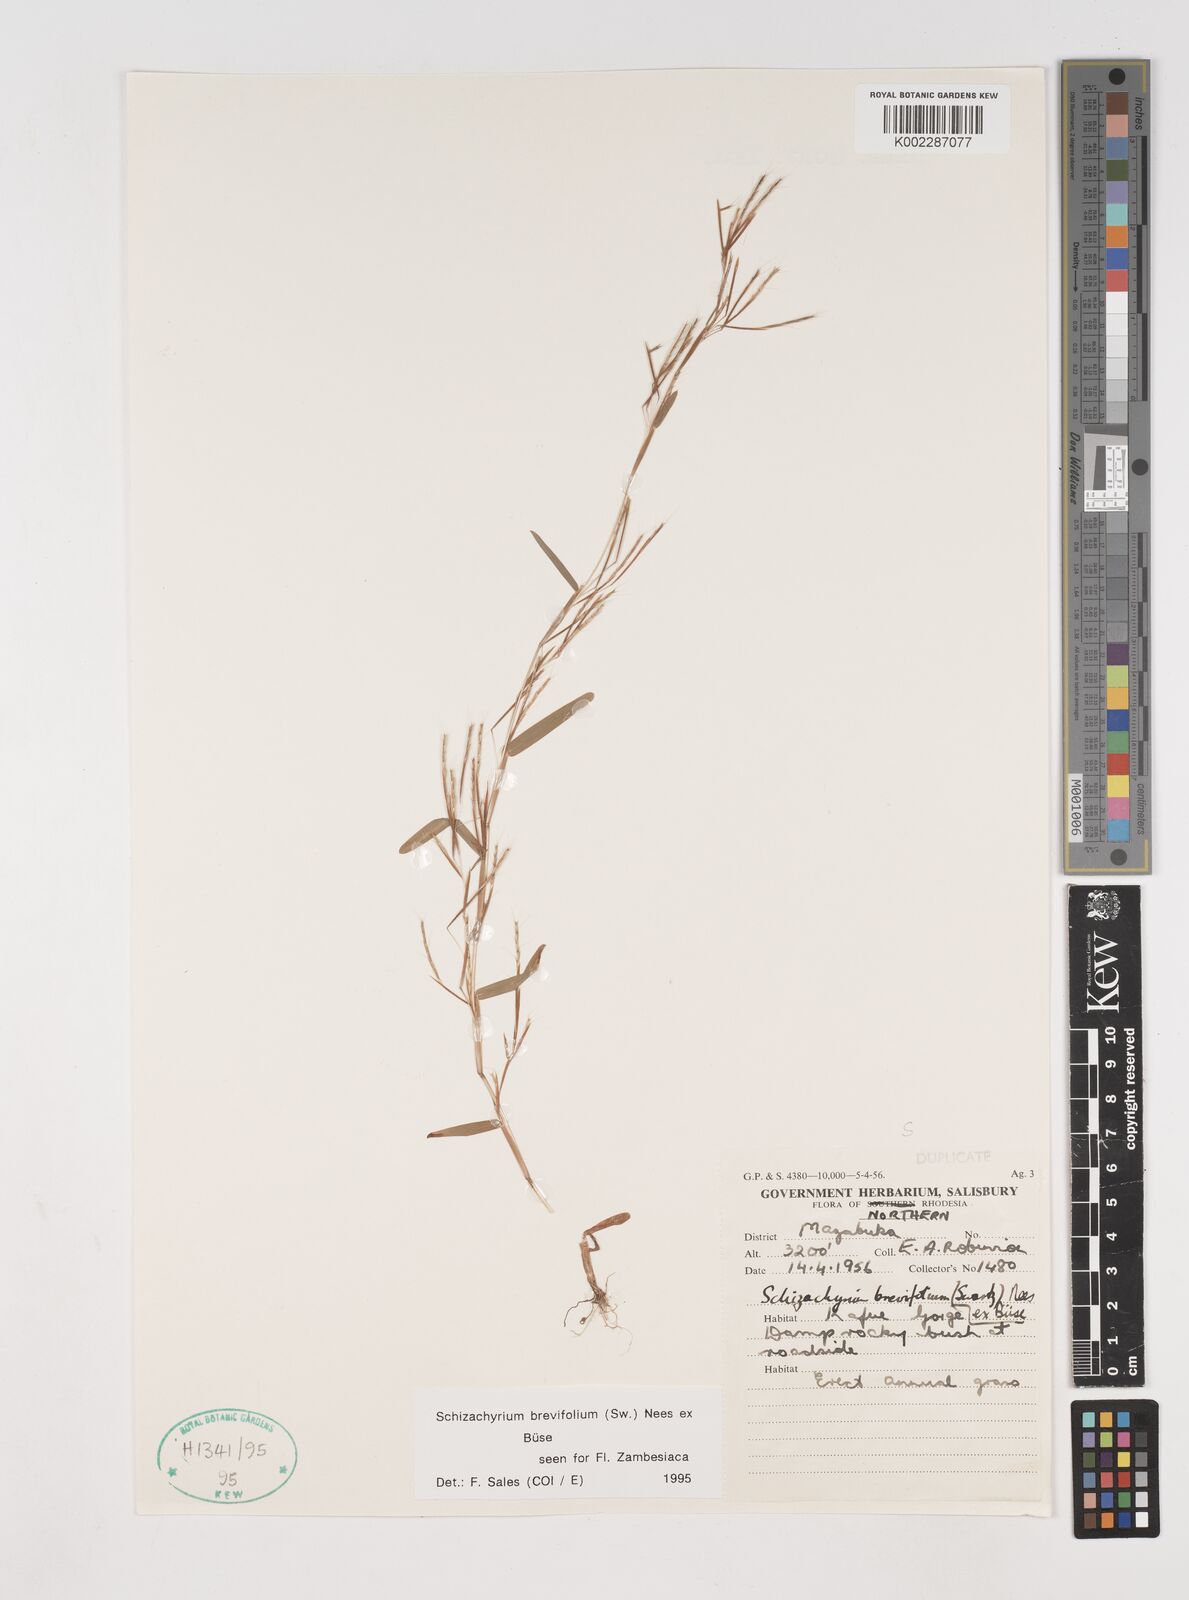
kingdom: Plantae
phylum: Tracheophyta
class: Liliopsida
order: Poales
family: Poaceae
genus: Schizachyrium
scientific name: Schizachyrium brevifolium
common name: Serillo dulce
